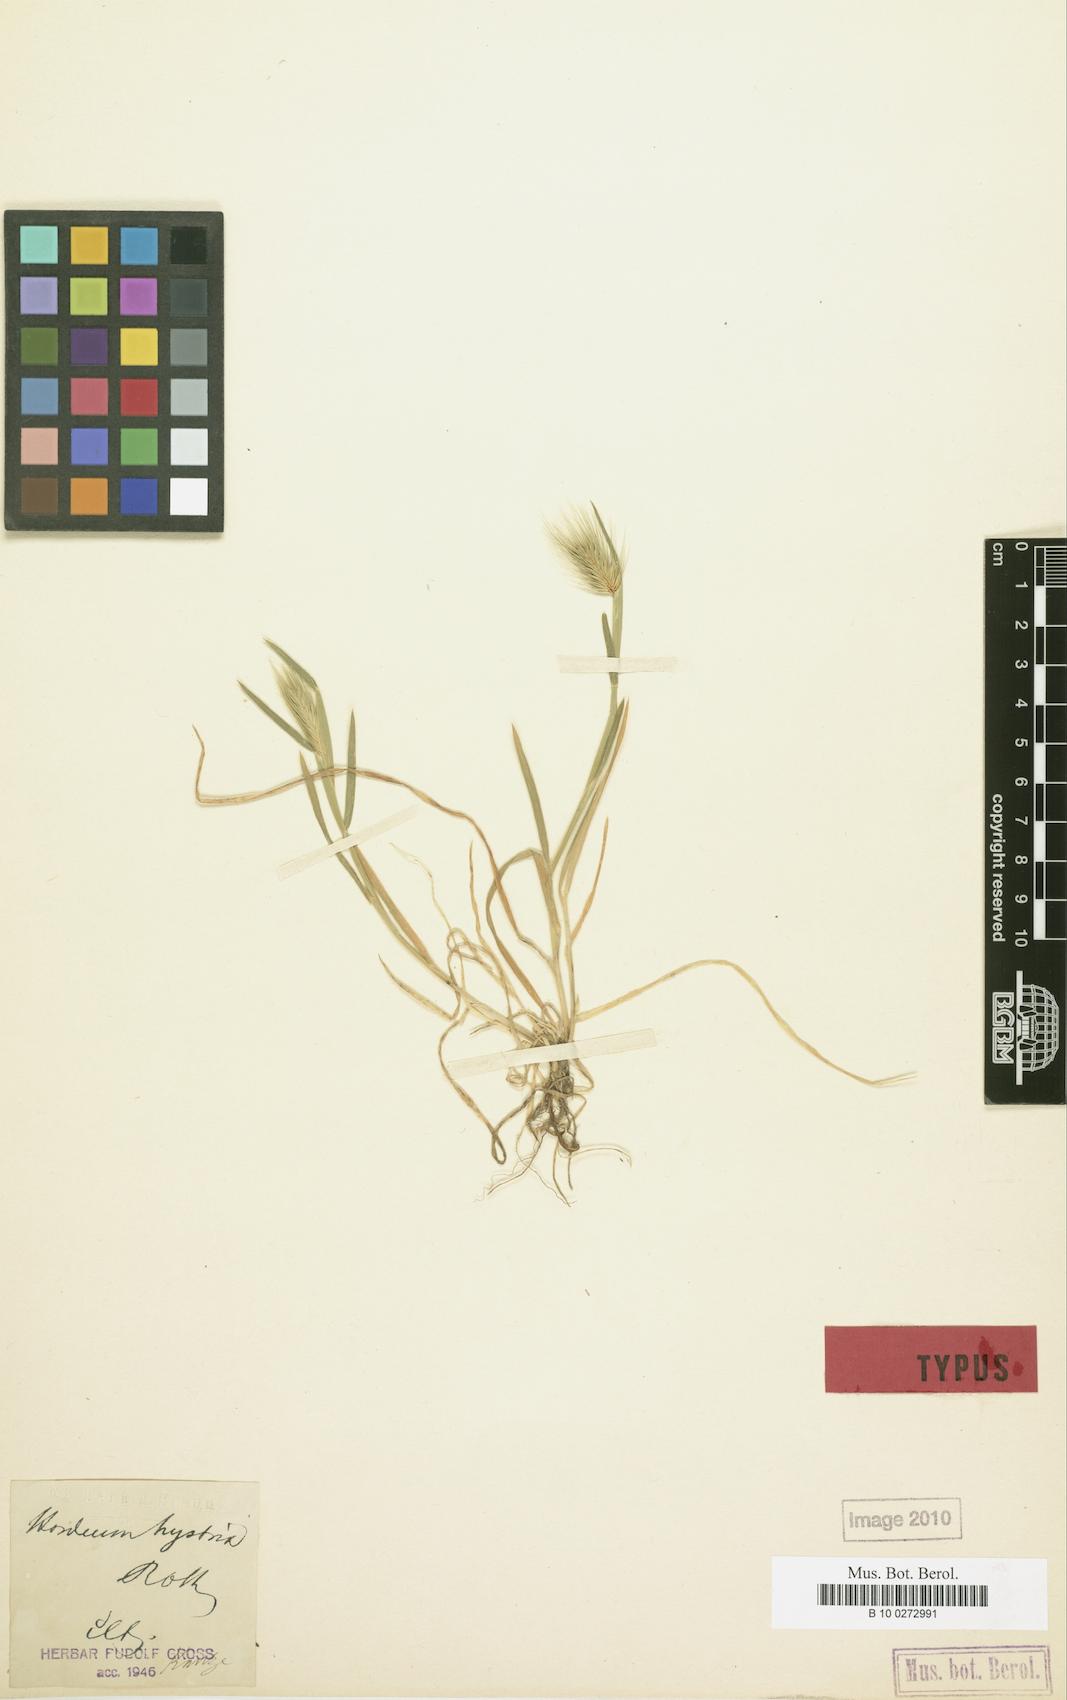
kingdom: Plantae
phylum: Tracheophyta
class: Liliopsida
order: Poales
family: Poaceae
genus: Hordeum
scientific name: Hordeum marinum
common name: Sea barley
